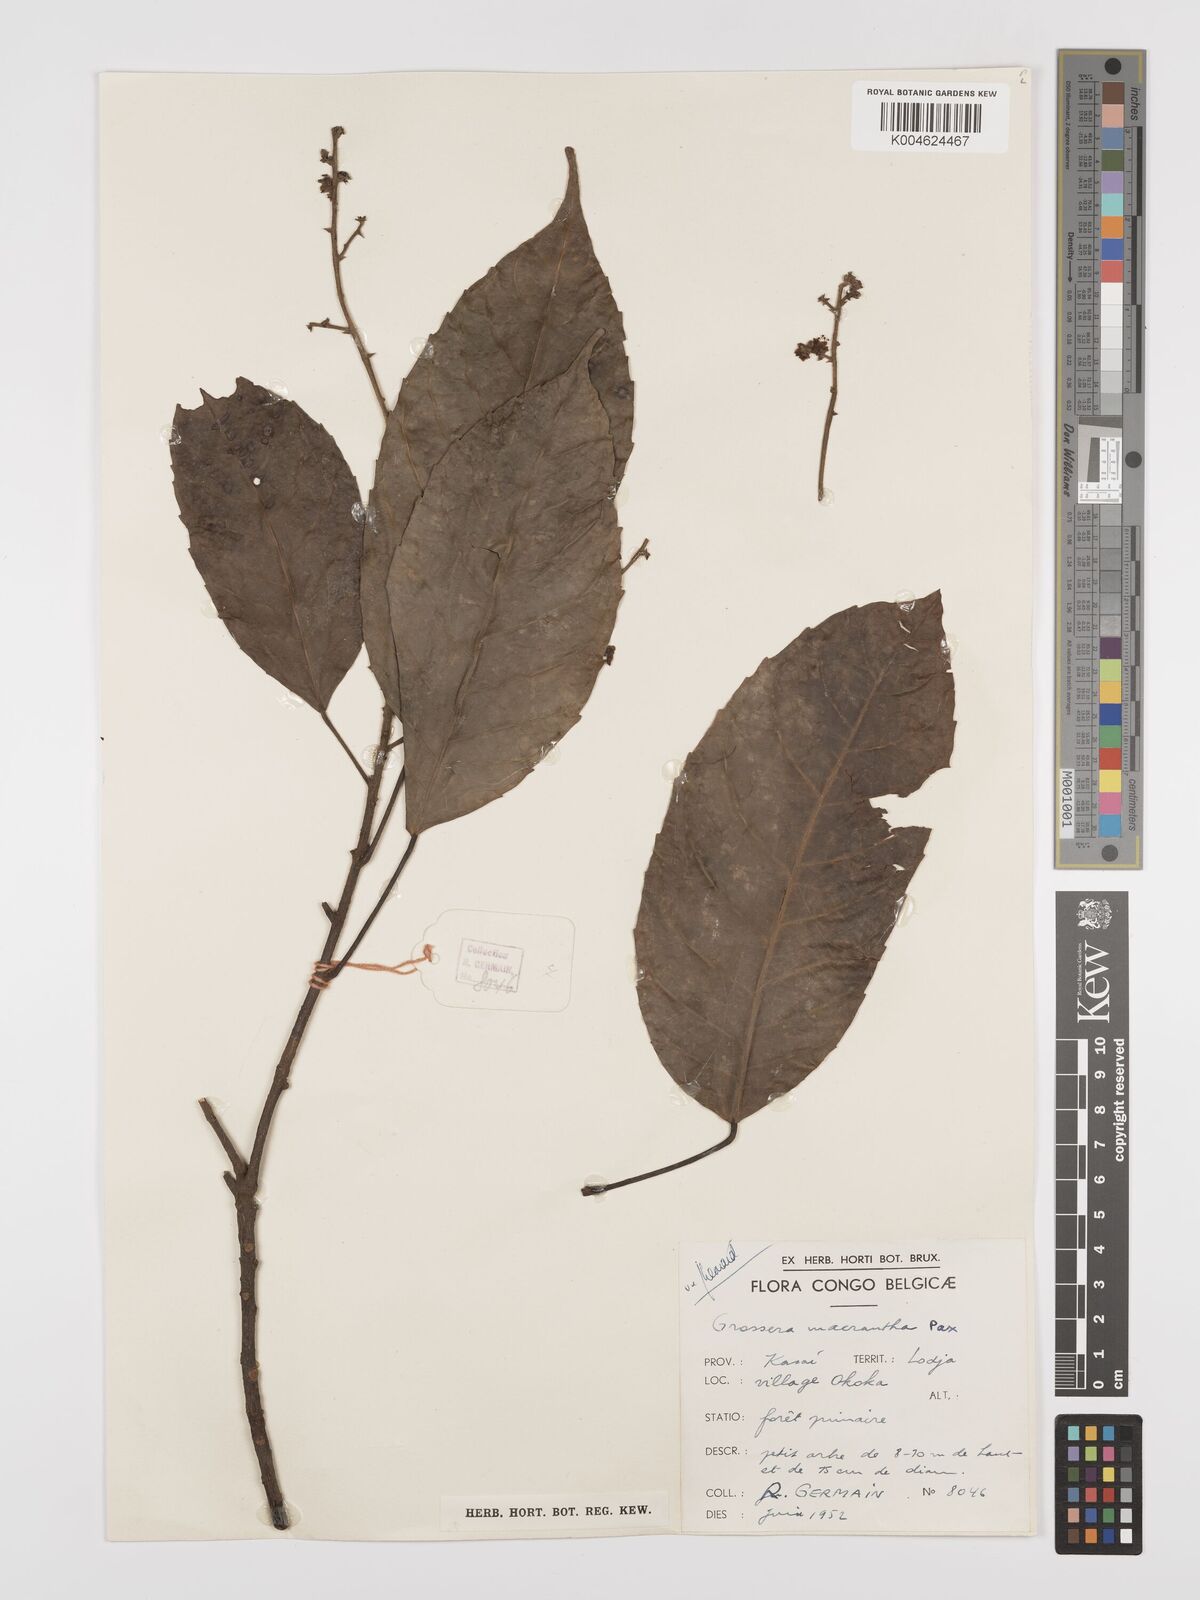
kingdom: Plantae
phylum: Tracheophyta
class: Magnoliopsida
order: Malpighiales
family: Euphorbiaceae
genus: Grossera
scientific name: Grossera macrantha
